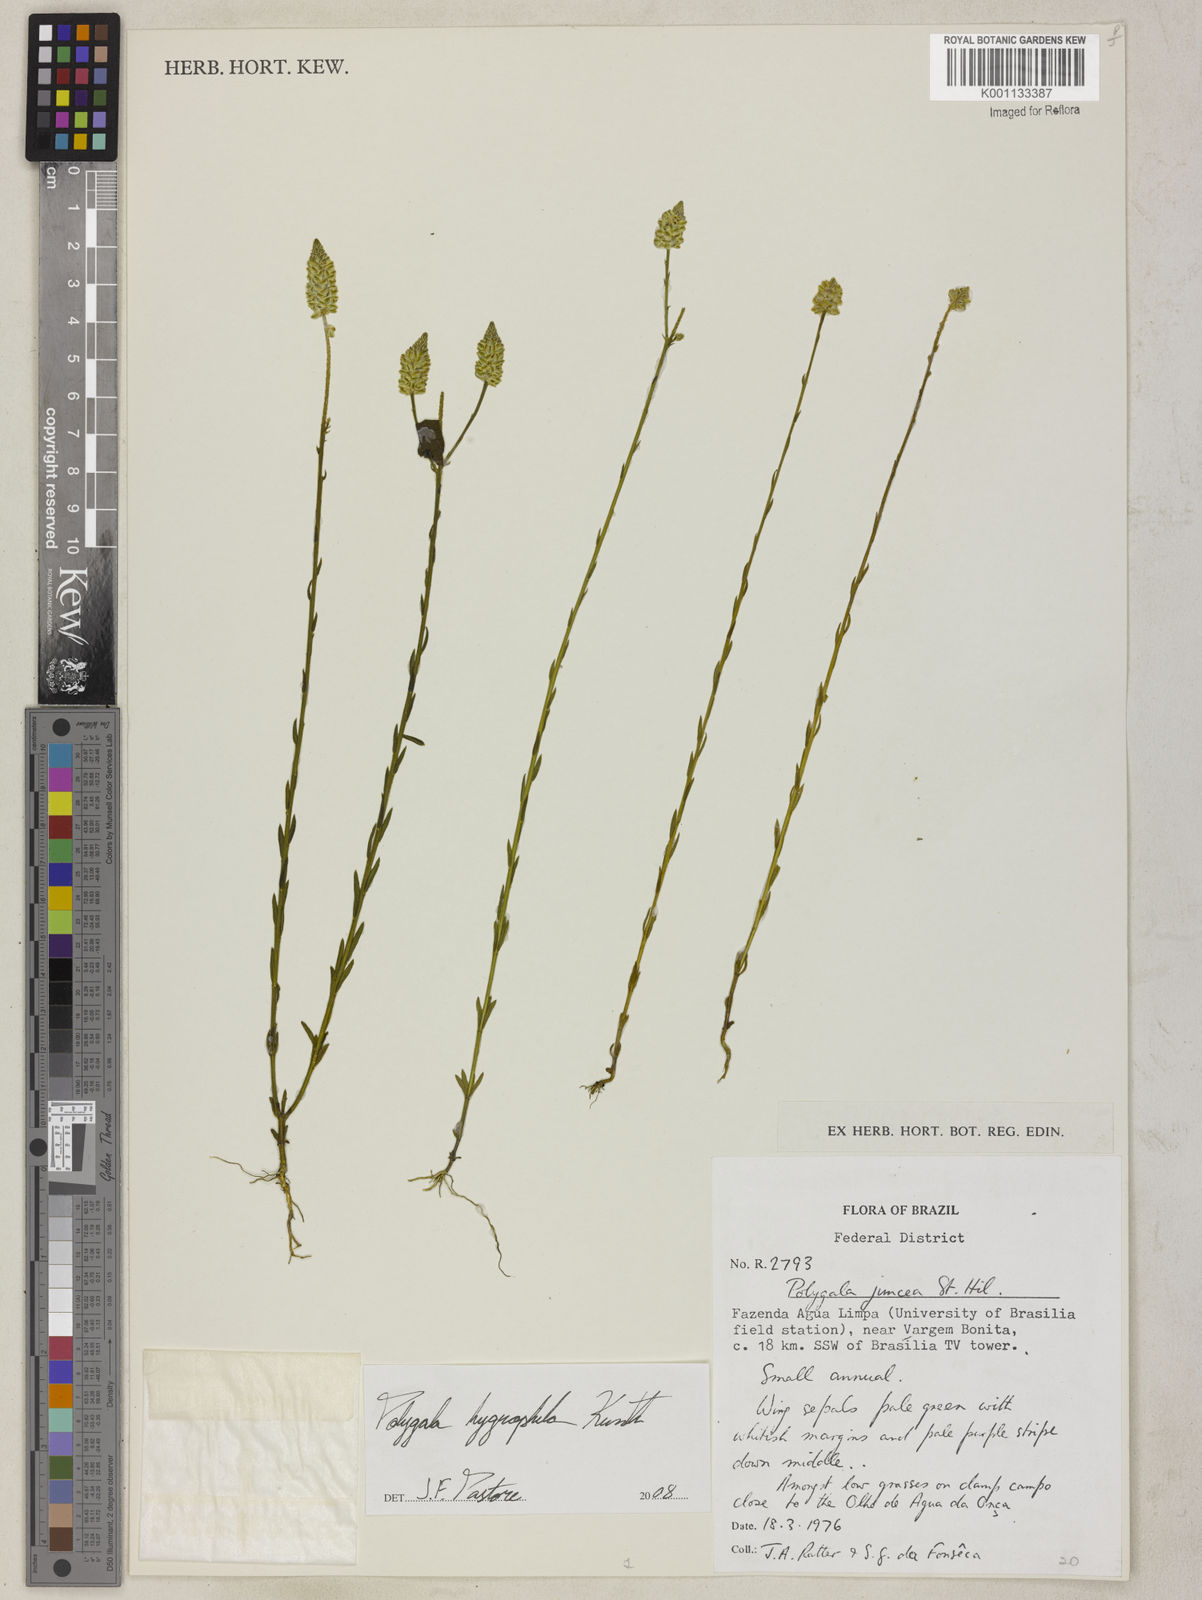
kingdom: Plantae
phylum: Tracheophyta
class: Magnoliopsida
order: Fabales
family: Polygalaceae
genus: Polygala
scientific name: Polygala hygrophila
